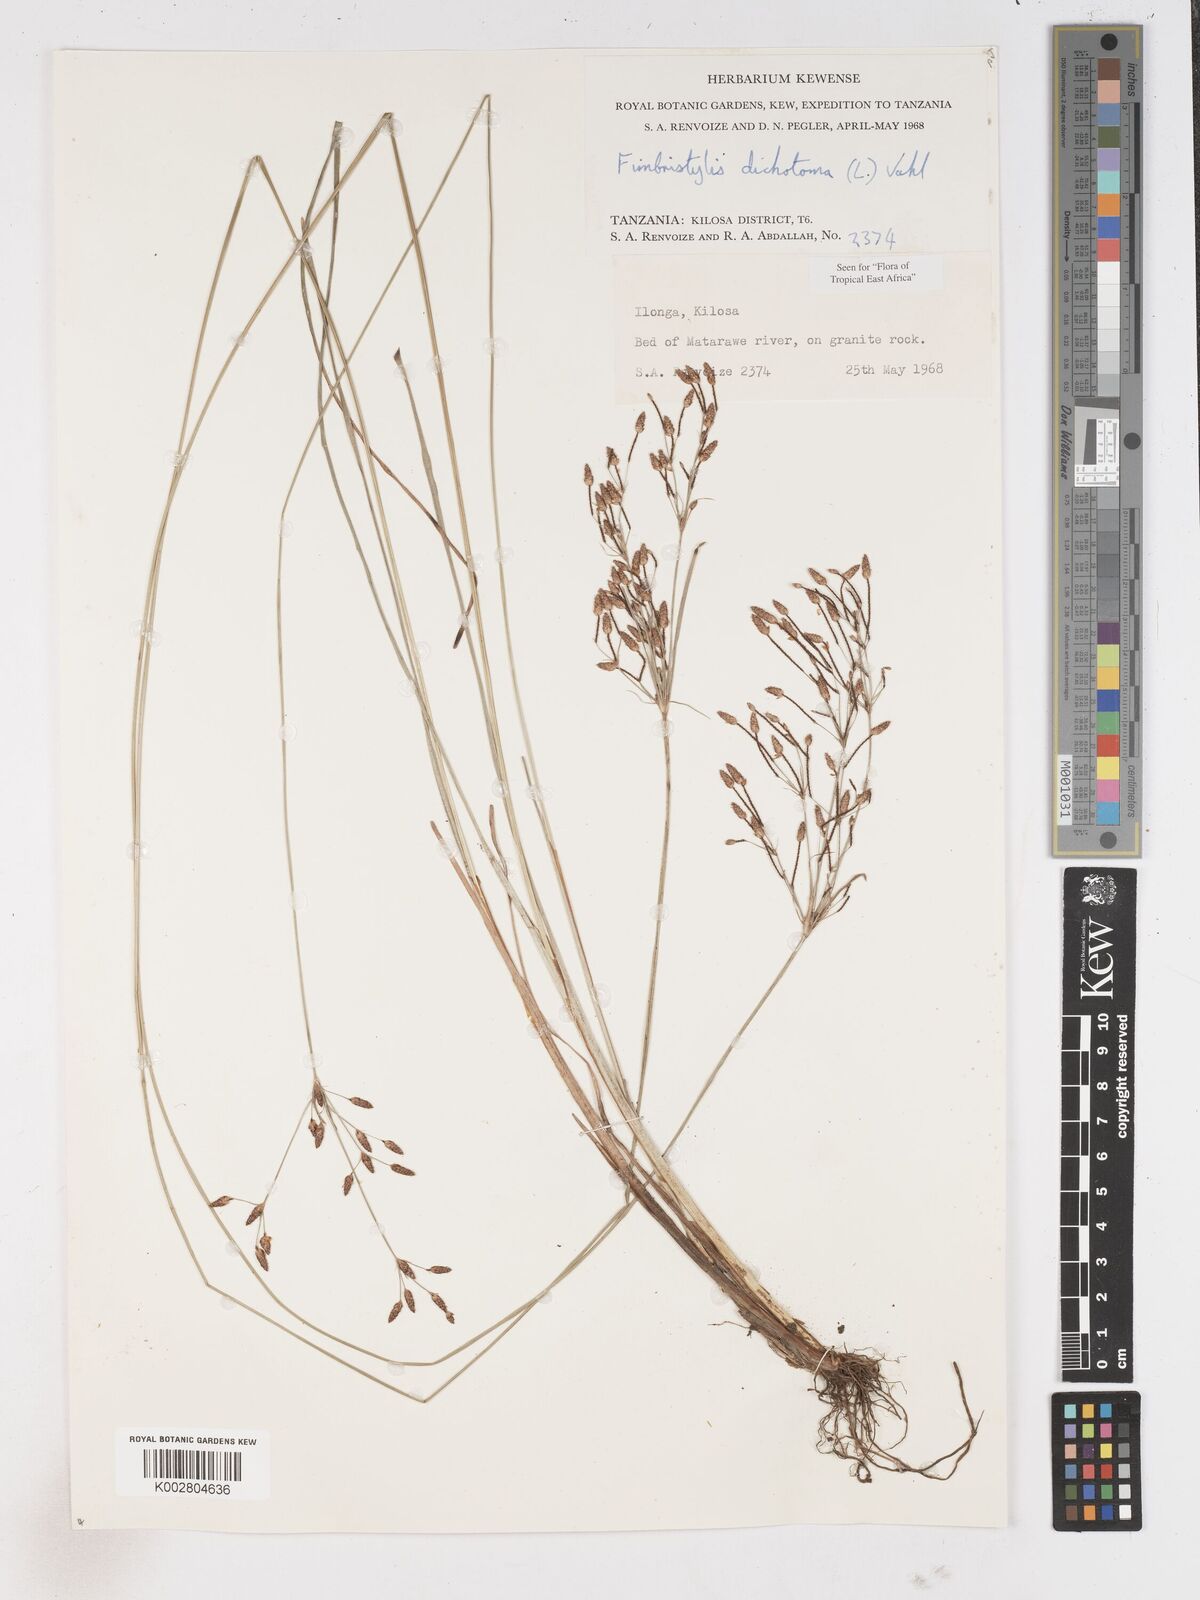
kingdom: Plantae
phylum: Tracheophyta
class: Liliopsida
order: Poales
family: Cyperaceae
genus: Fimbristylis
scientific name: Fimbristylis dichotoma
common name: Forked fimbry
